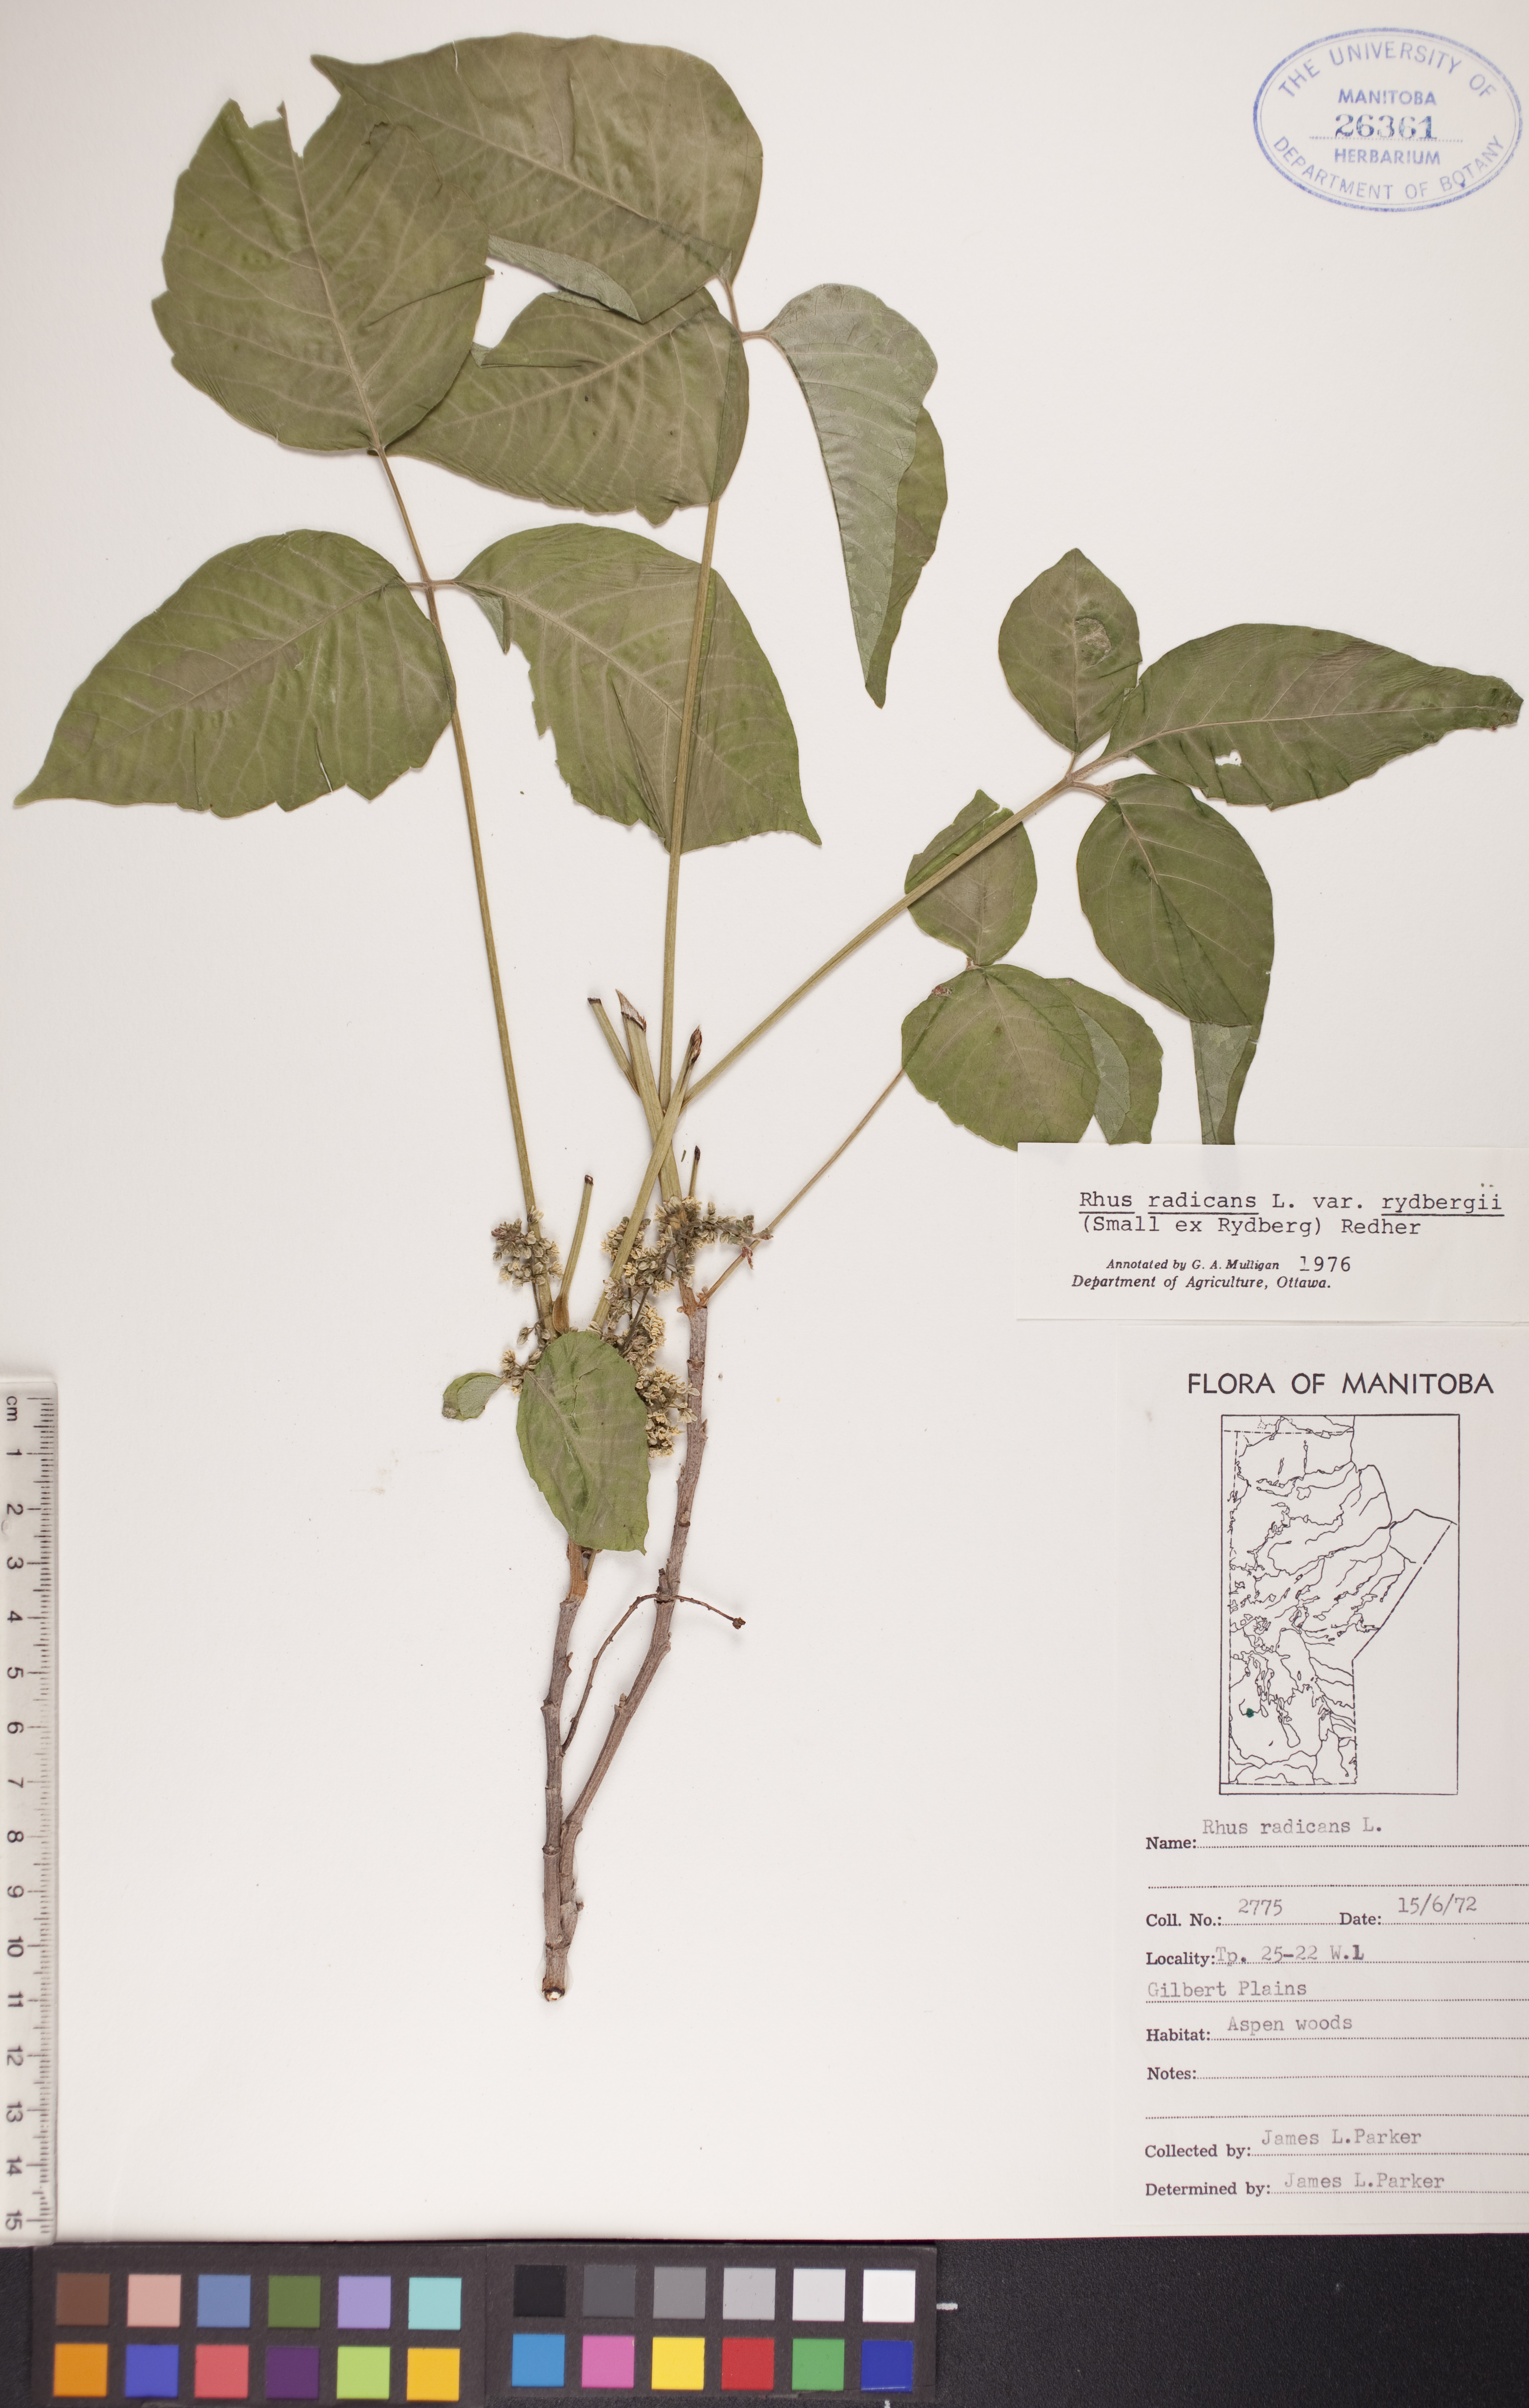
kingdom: Plantae
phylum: Tracheophyta
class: Magnoliopsida
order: Sapindales
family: Anacardiaceae
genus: Toxicodendron
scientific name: Toxicodendron rydbergii
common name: Rydberg's poison-ivy
